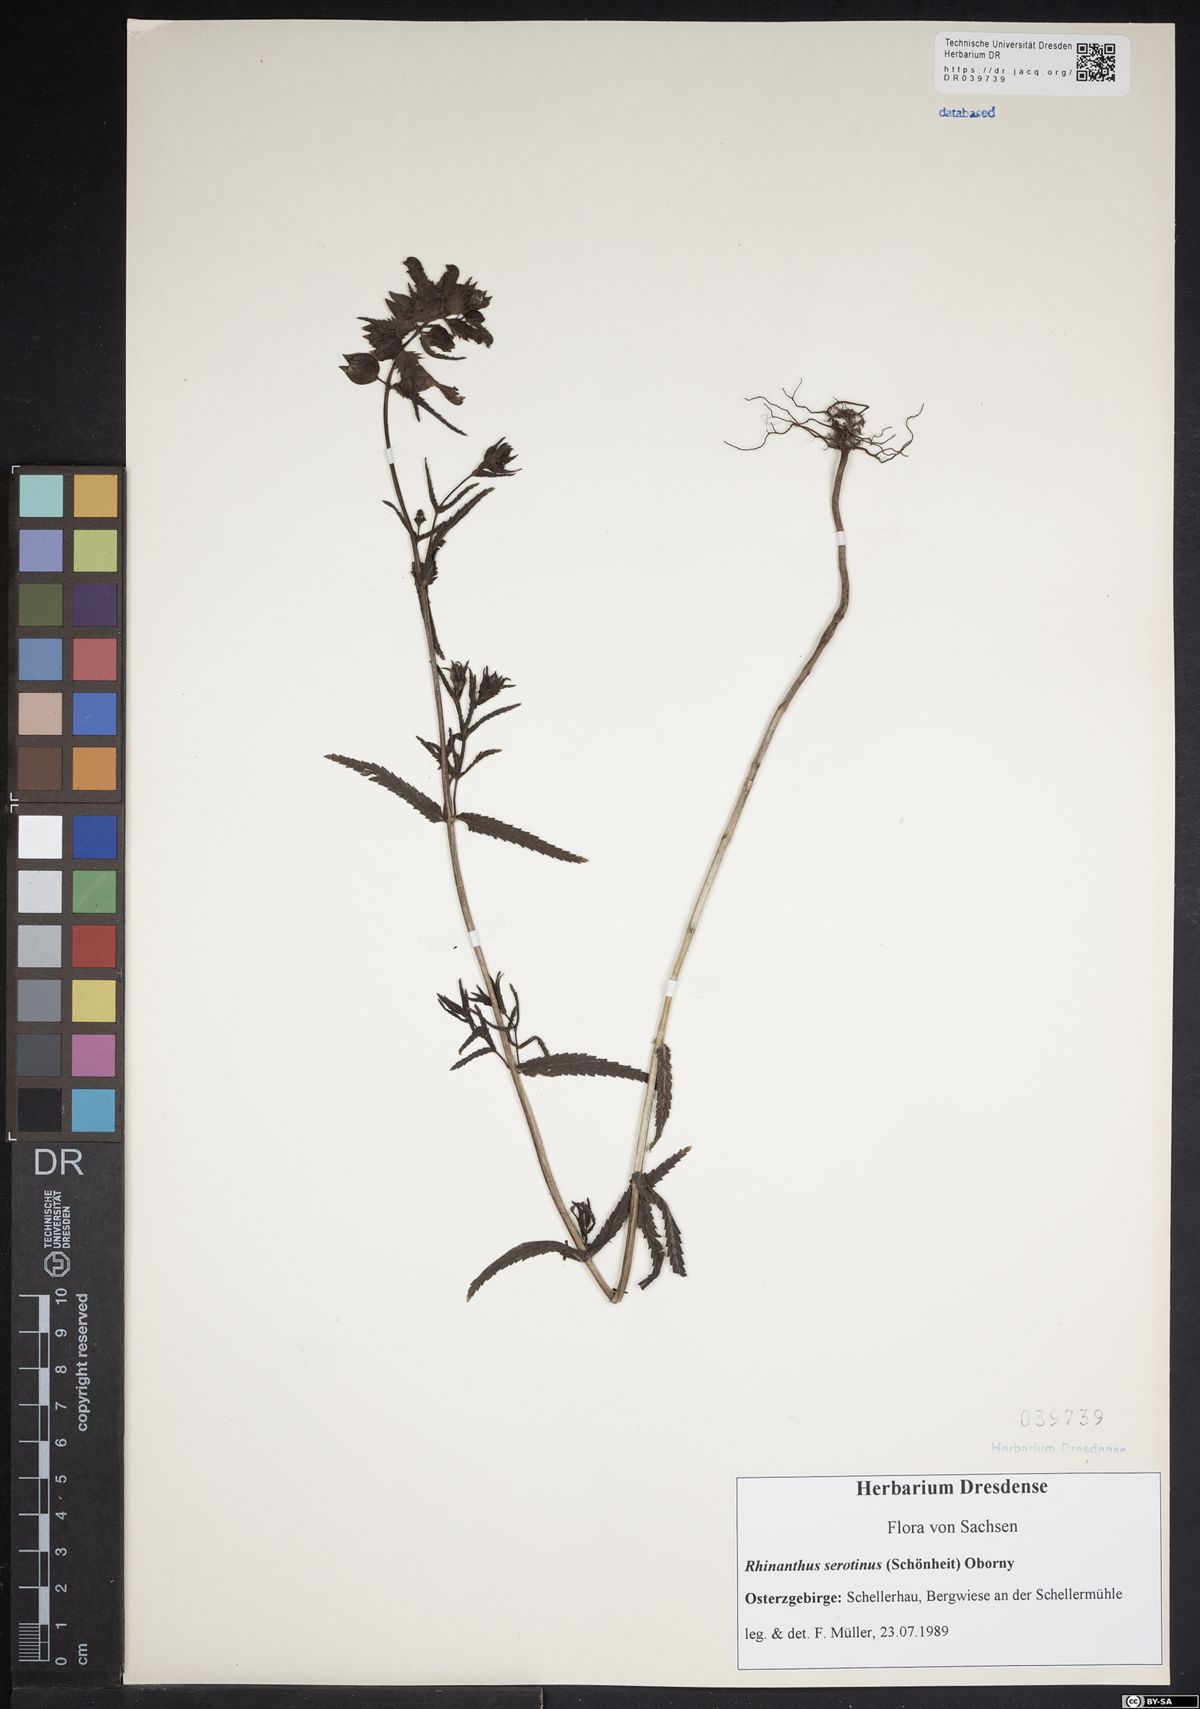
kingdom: Plantae
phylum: Tracheophyta
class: Magnoliopsida
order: Lamiales
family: Orobanchaceae
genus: Rhinanthus
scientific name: Rhinanthus serotinus
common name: Late-flowering yellow rattle
